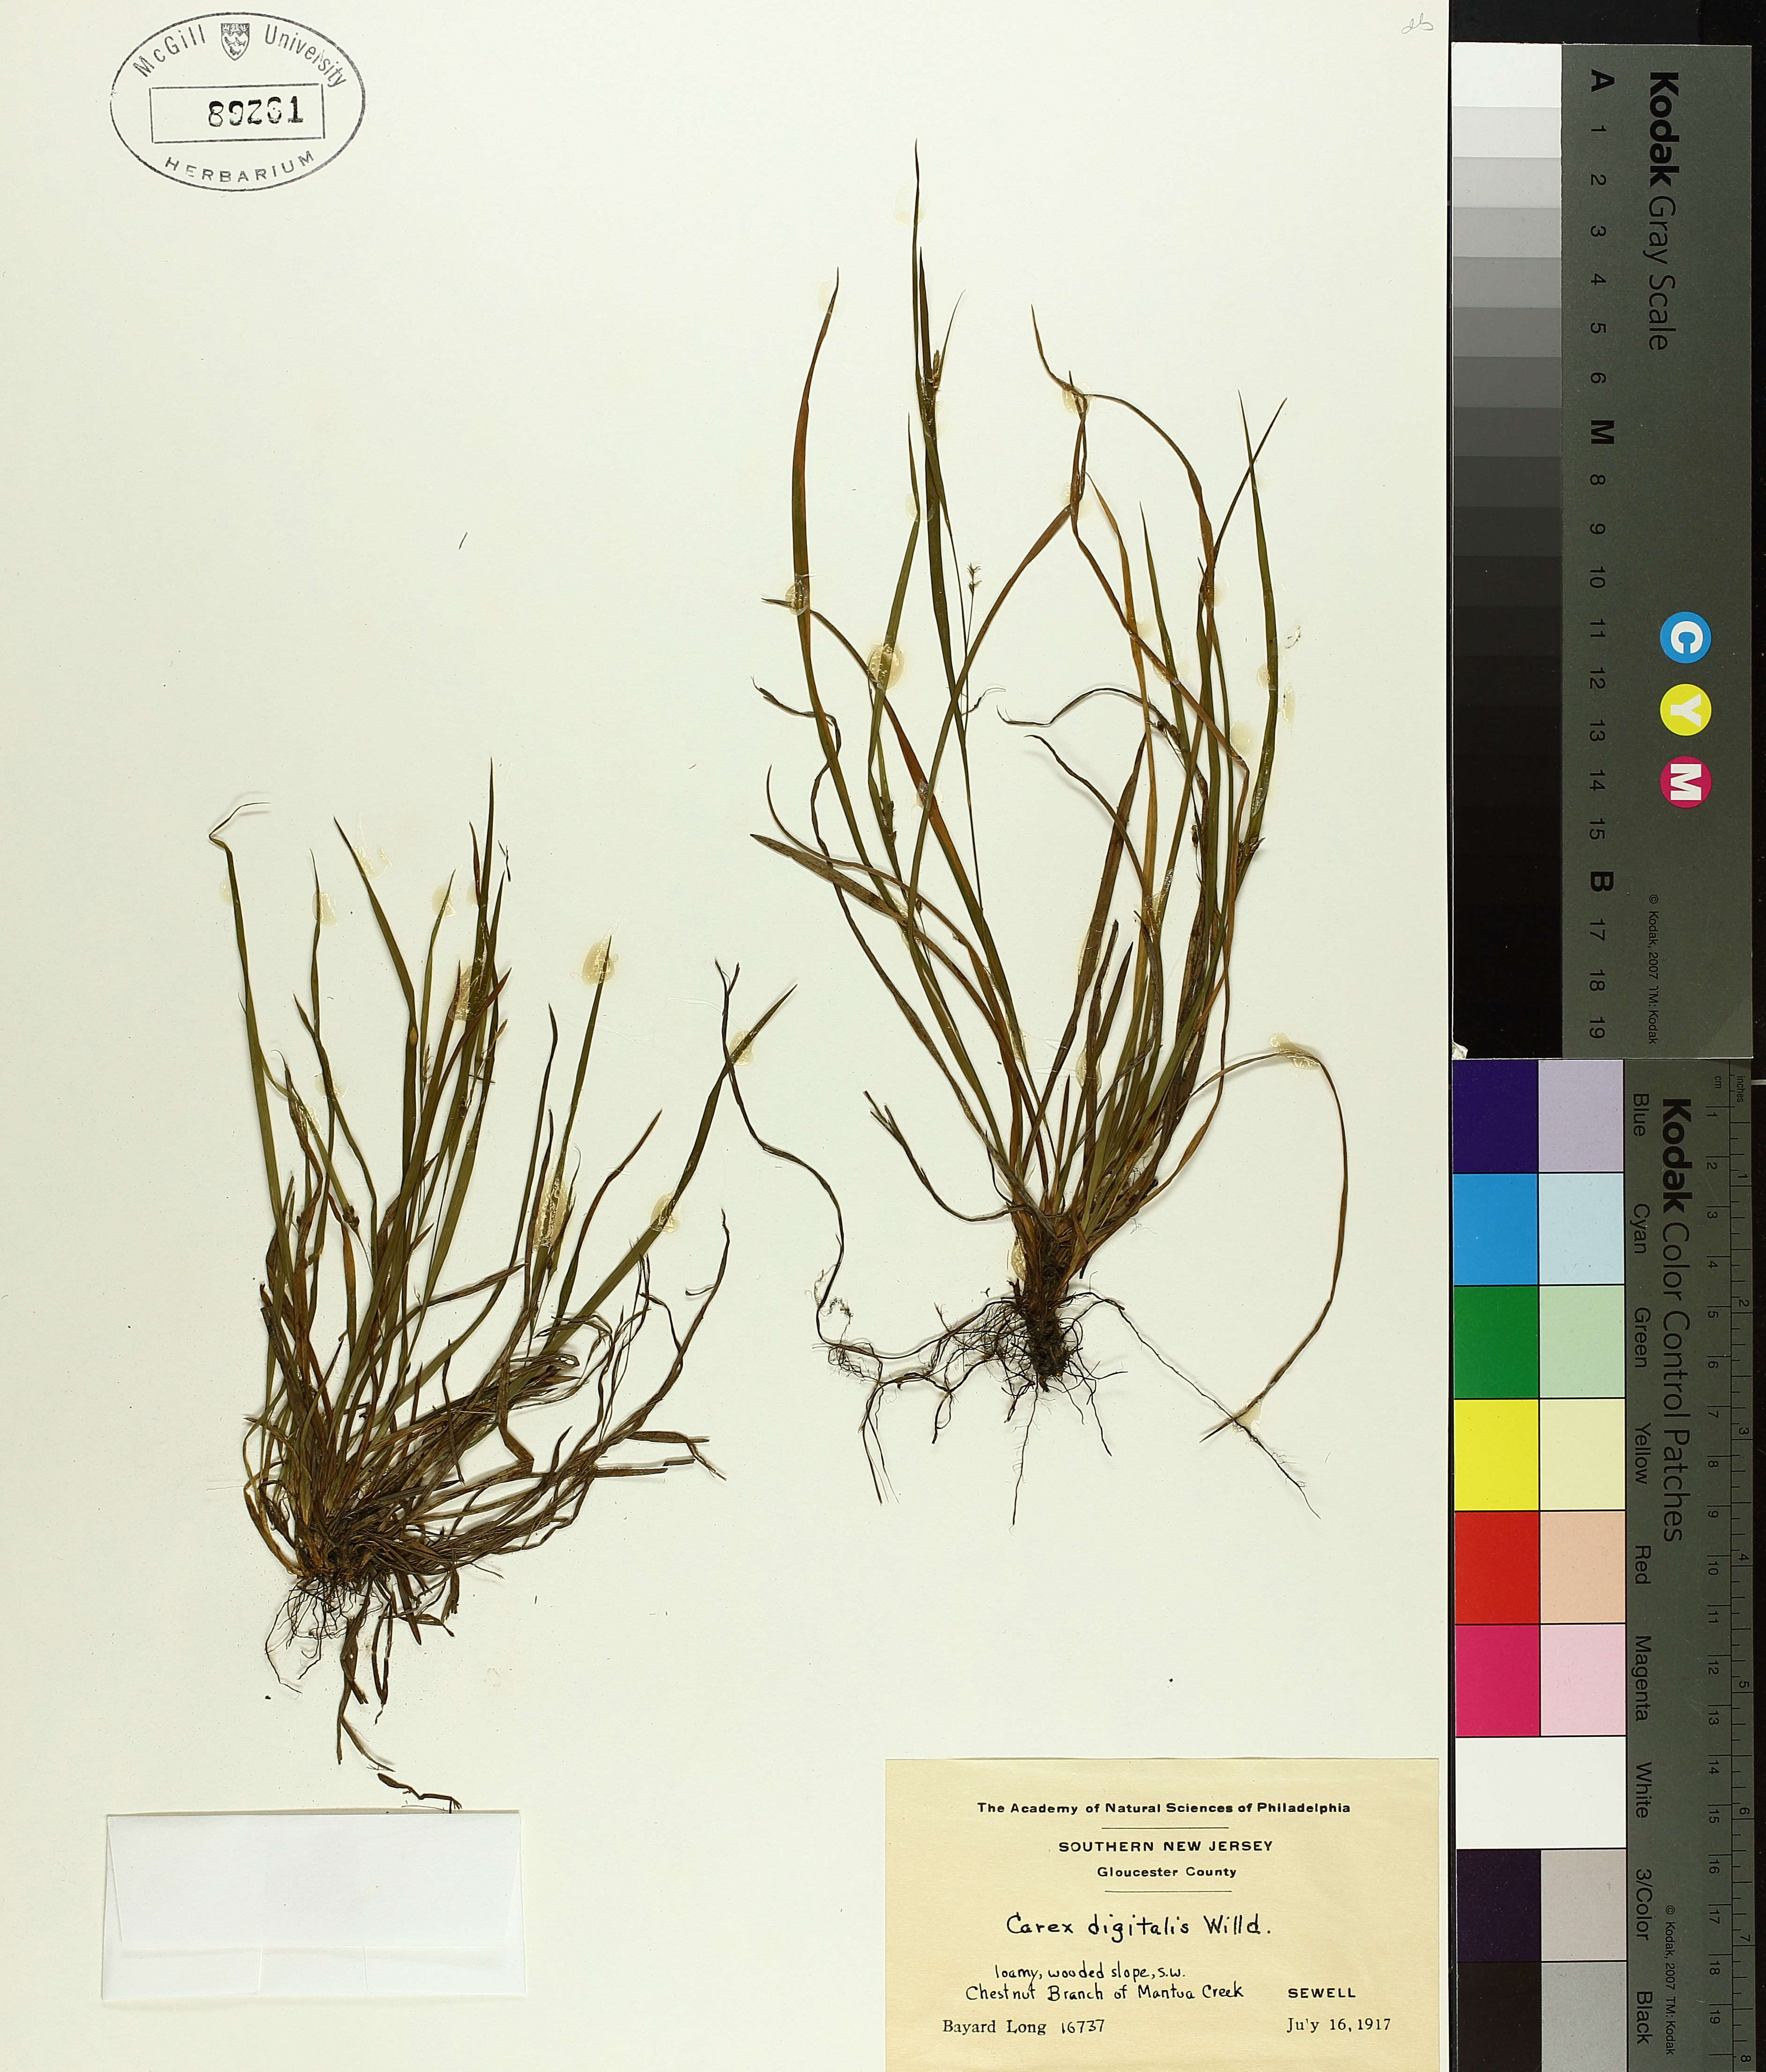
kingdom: Plantae
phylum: Tracheophyta
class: Liliopsida
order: Poales
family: Cyperaceae
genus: Carex
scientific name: Carex digitalis
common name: Slender wood sedge
